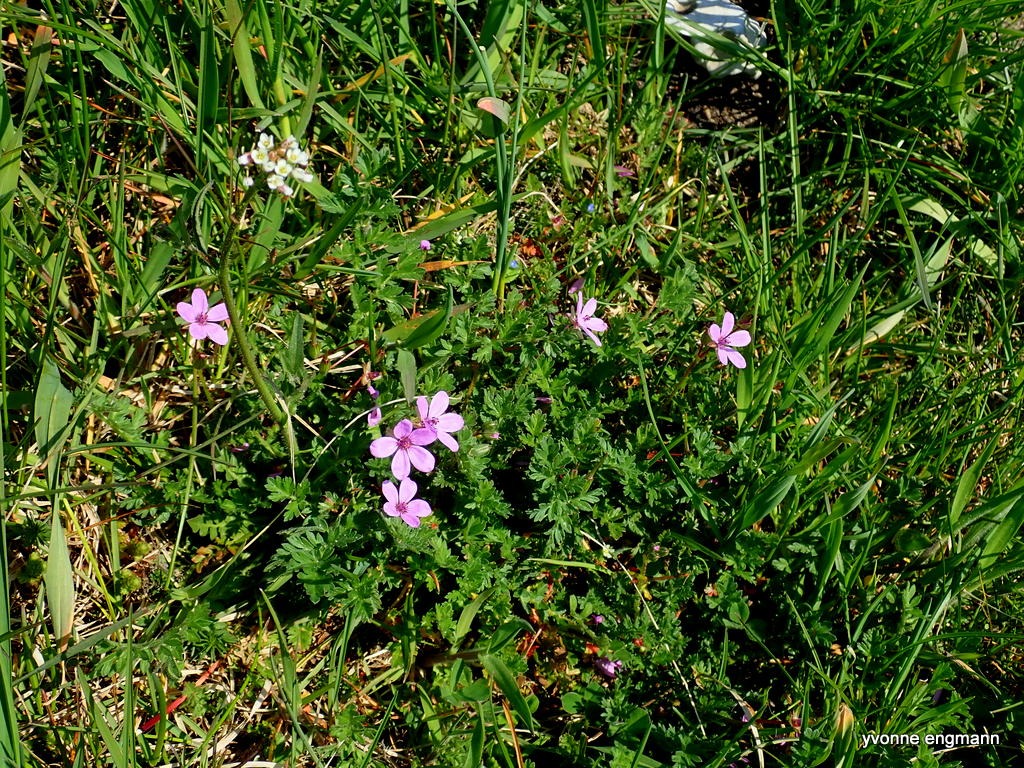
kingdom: Plantae
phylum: Tracheophyta
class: Magnoliopsida
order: Geraniales
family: Geraniaceae
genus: Erodium
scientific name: Erodium cicutarium
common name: Hejrenæb
